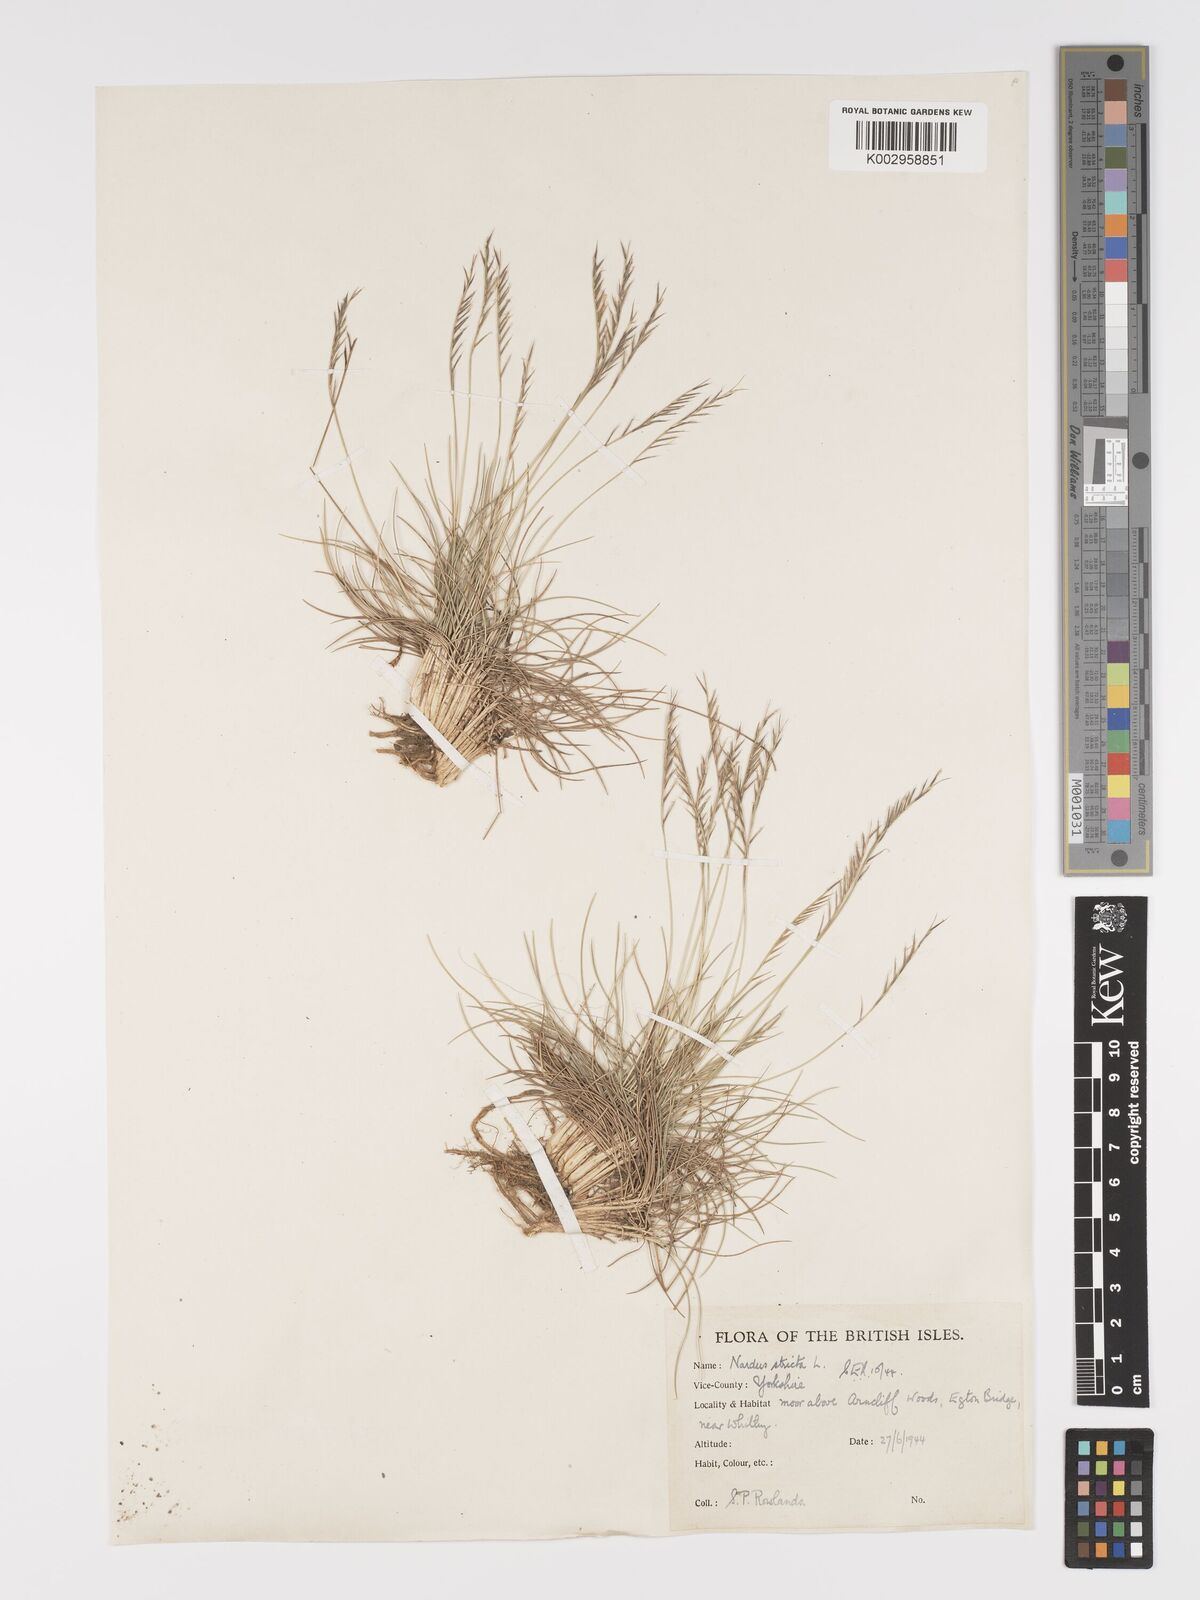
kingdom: Plantae
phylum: Tracheophyta
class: Liliopsida
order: Poales
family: Poaceae
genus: Nardus
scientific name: Nardus stricta
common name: Mat-grass
